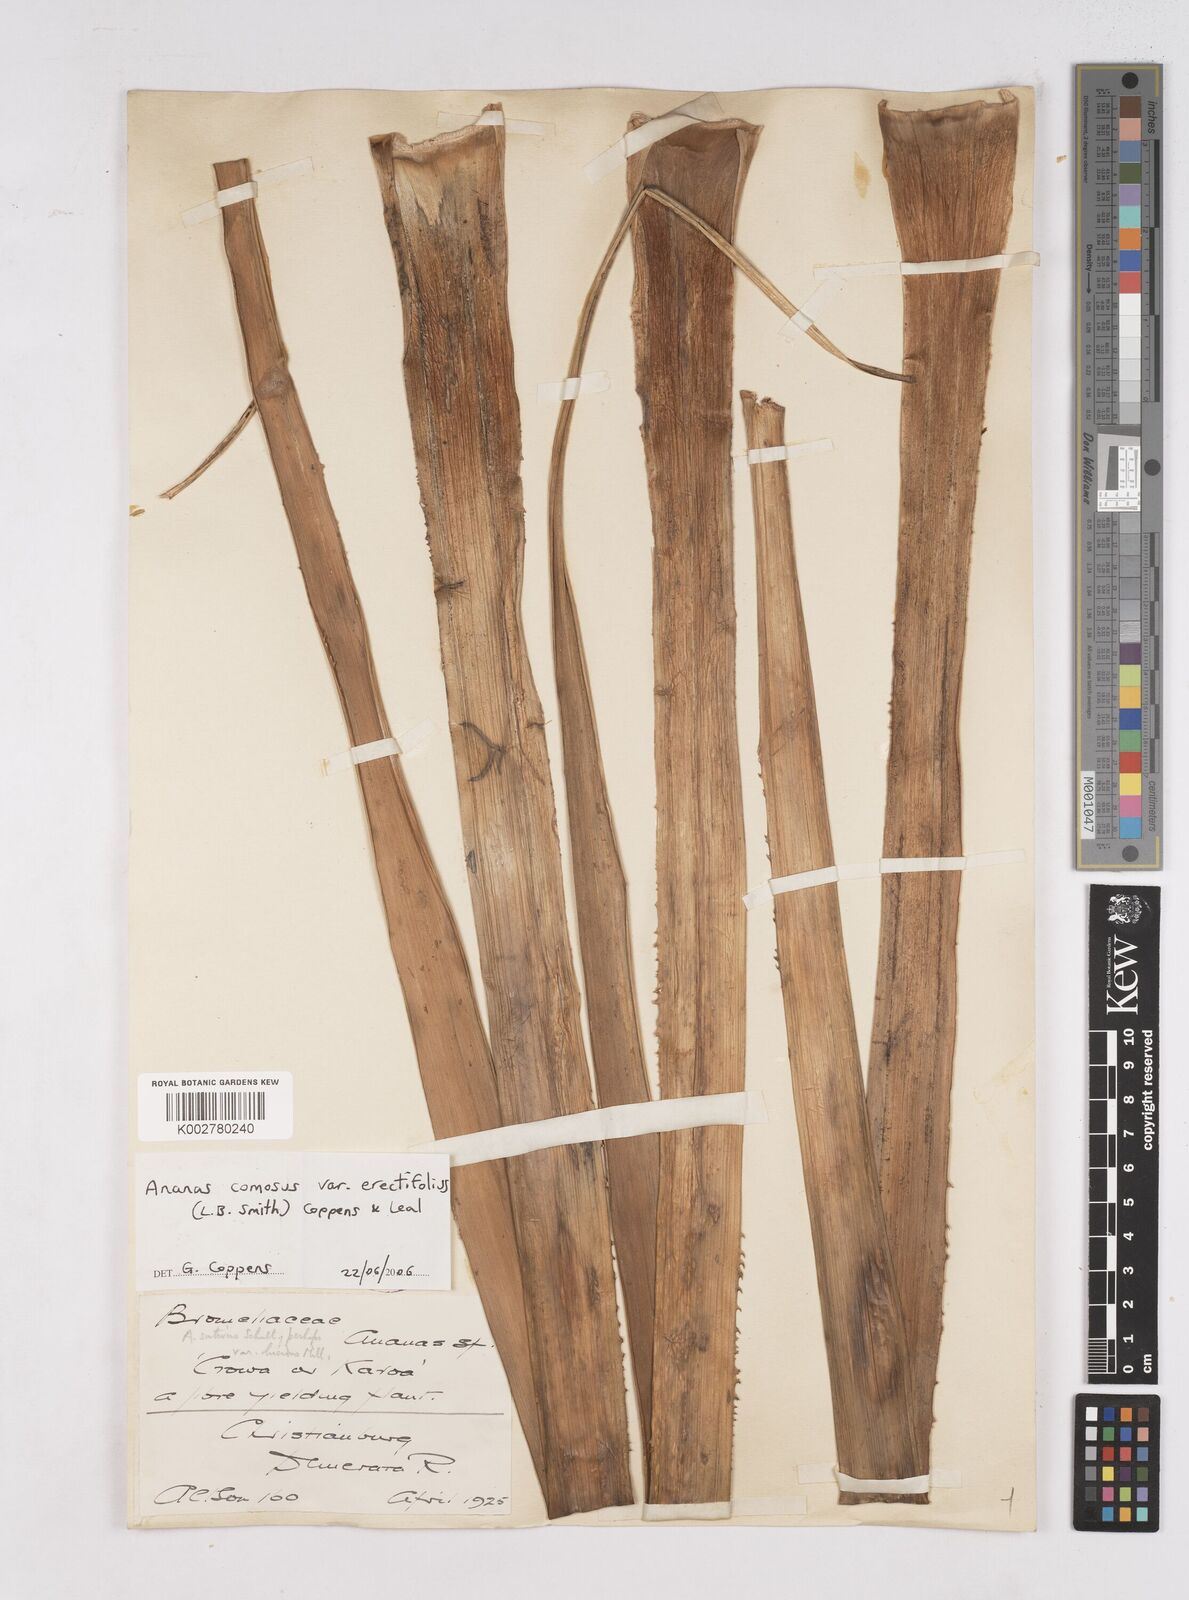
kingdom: Plantae
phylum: Tracheophyta
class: Liliopsida
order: Poales
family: Bromeliaceae
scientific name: Bromeliaceae
